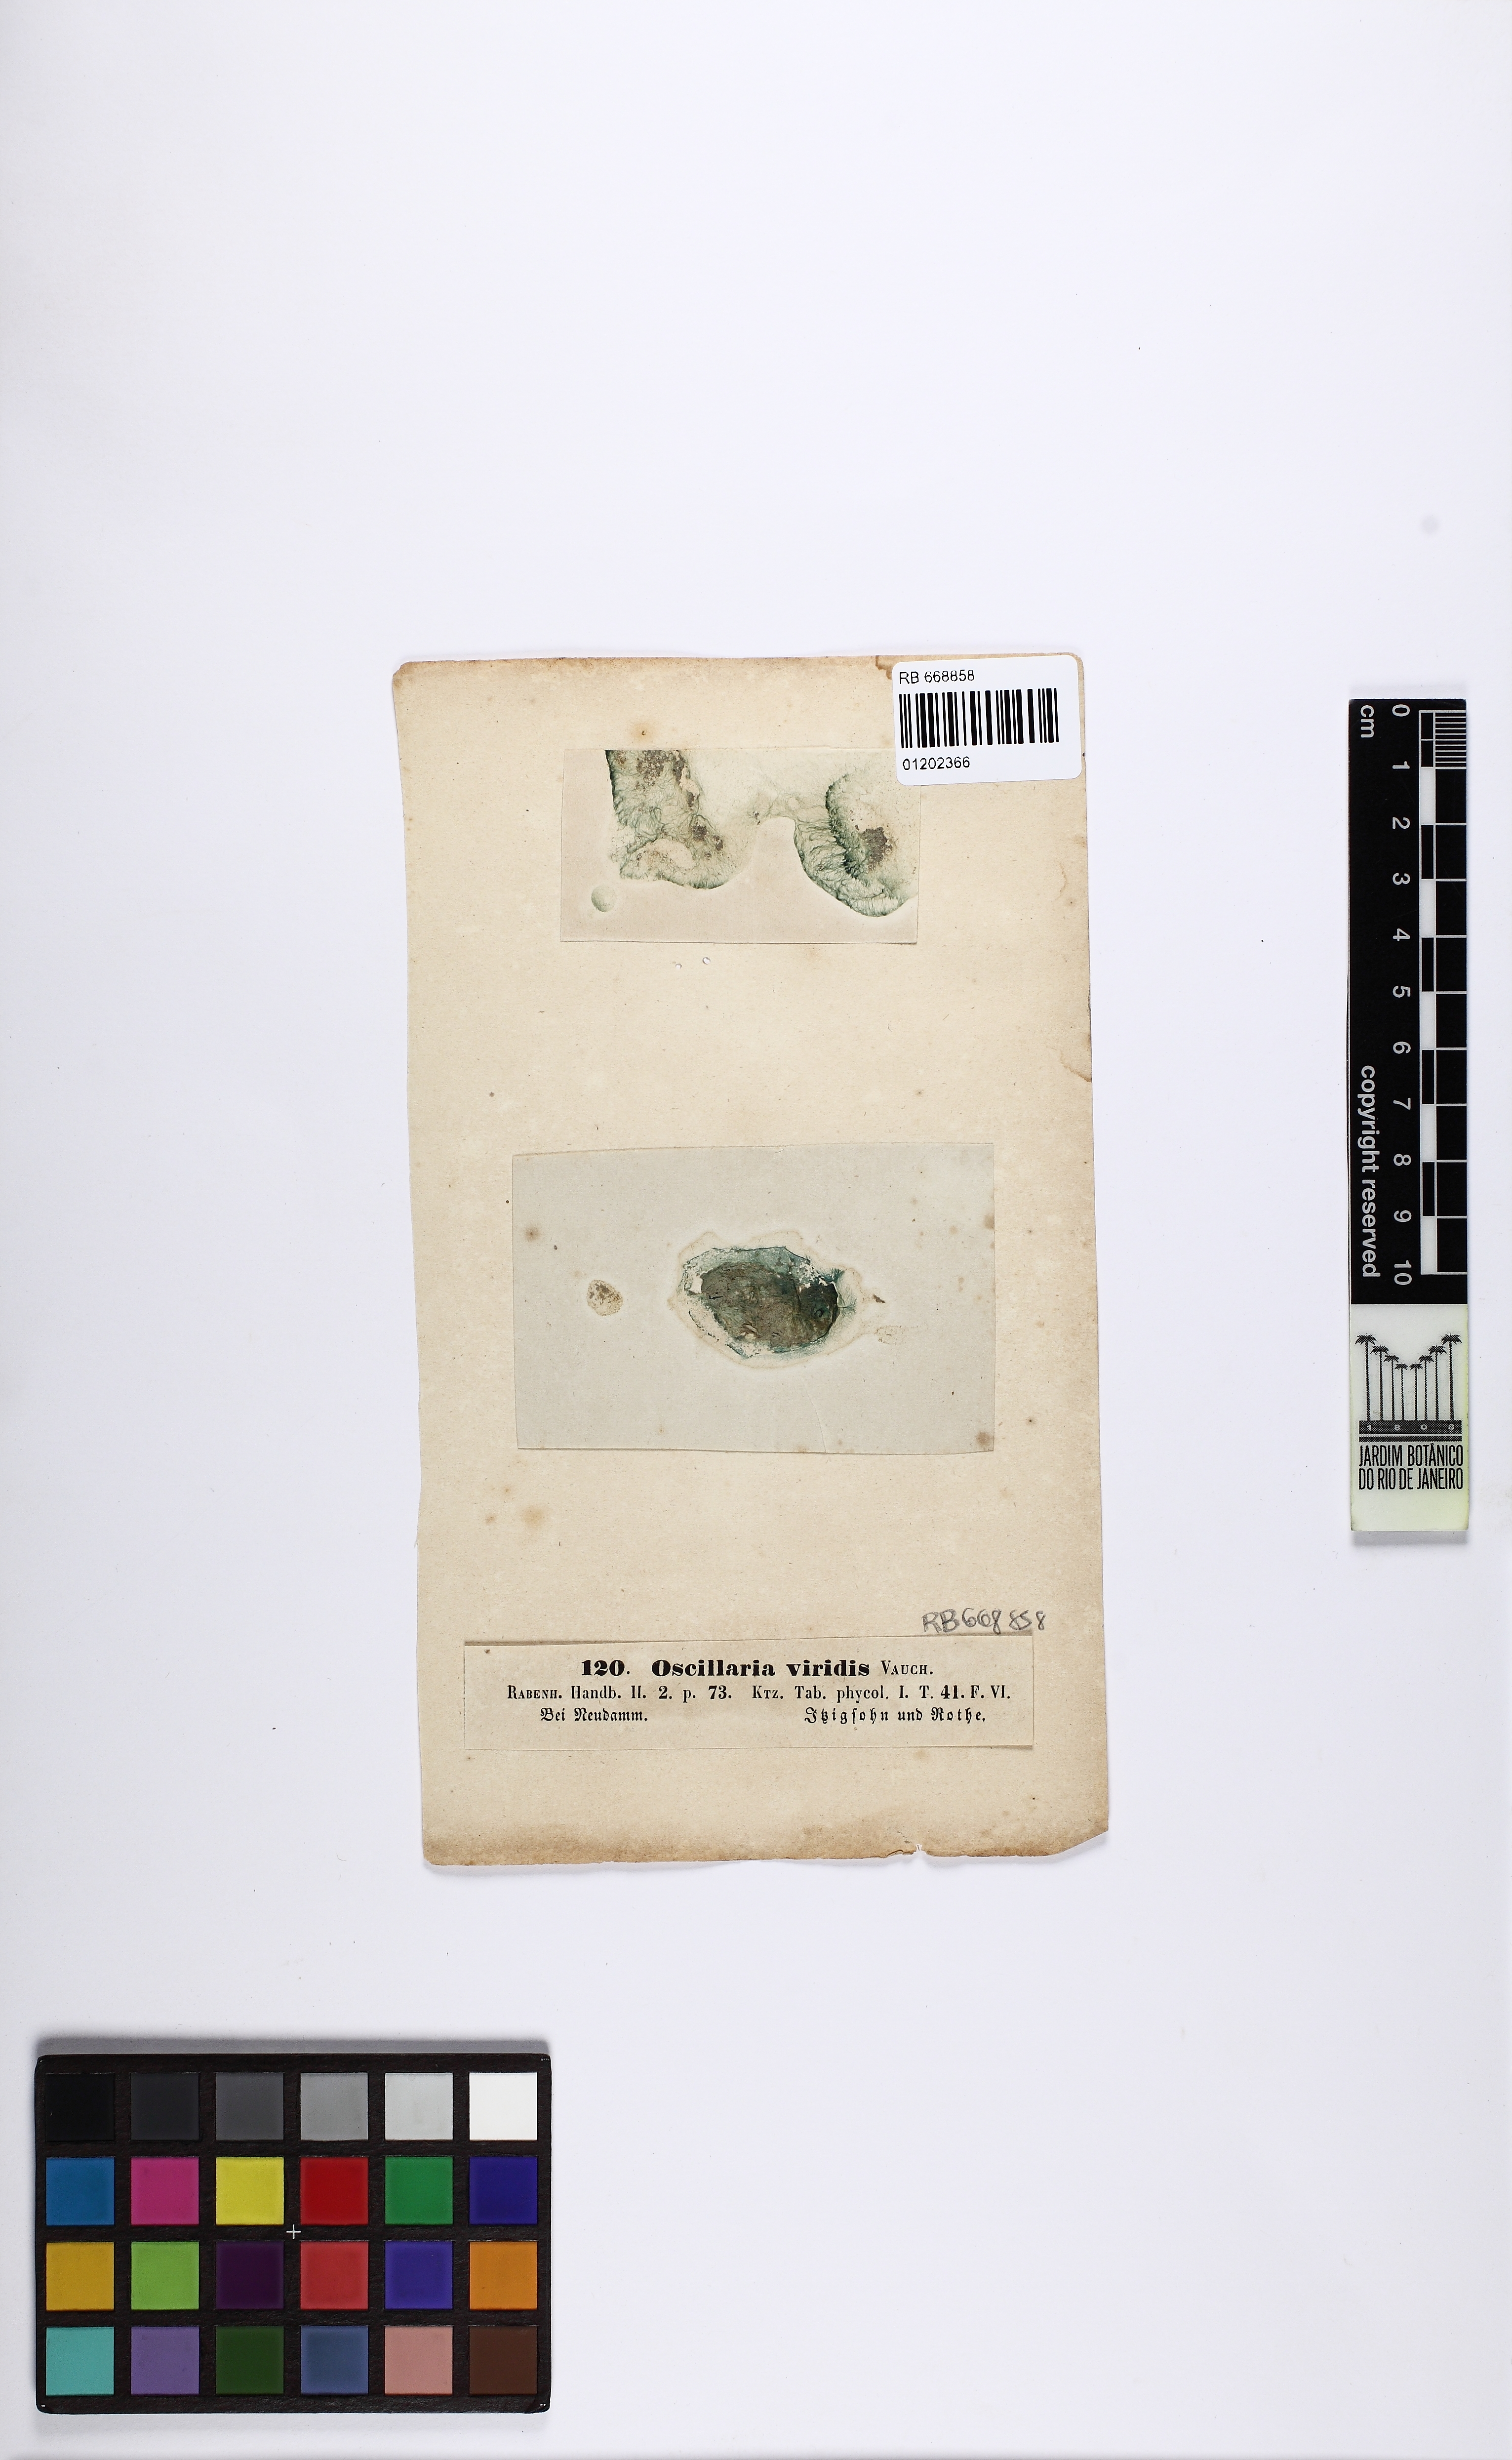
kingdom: Bacteria
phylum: Cyanobacteria
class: Cyanobacteriia
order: Cyanobacteriales
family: Oscillatoriaceae
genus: Oscillatoria
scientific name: Oscillatoria
